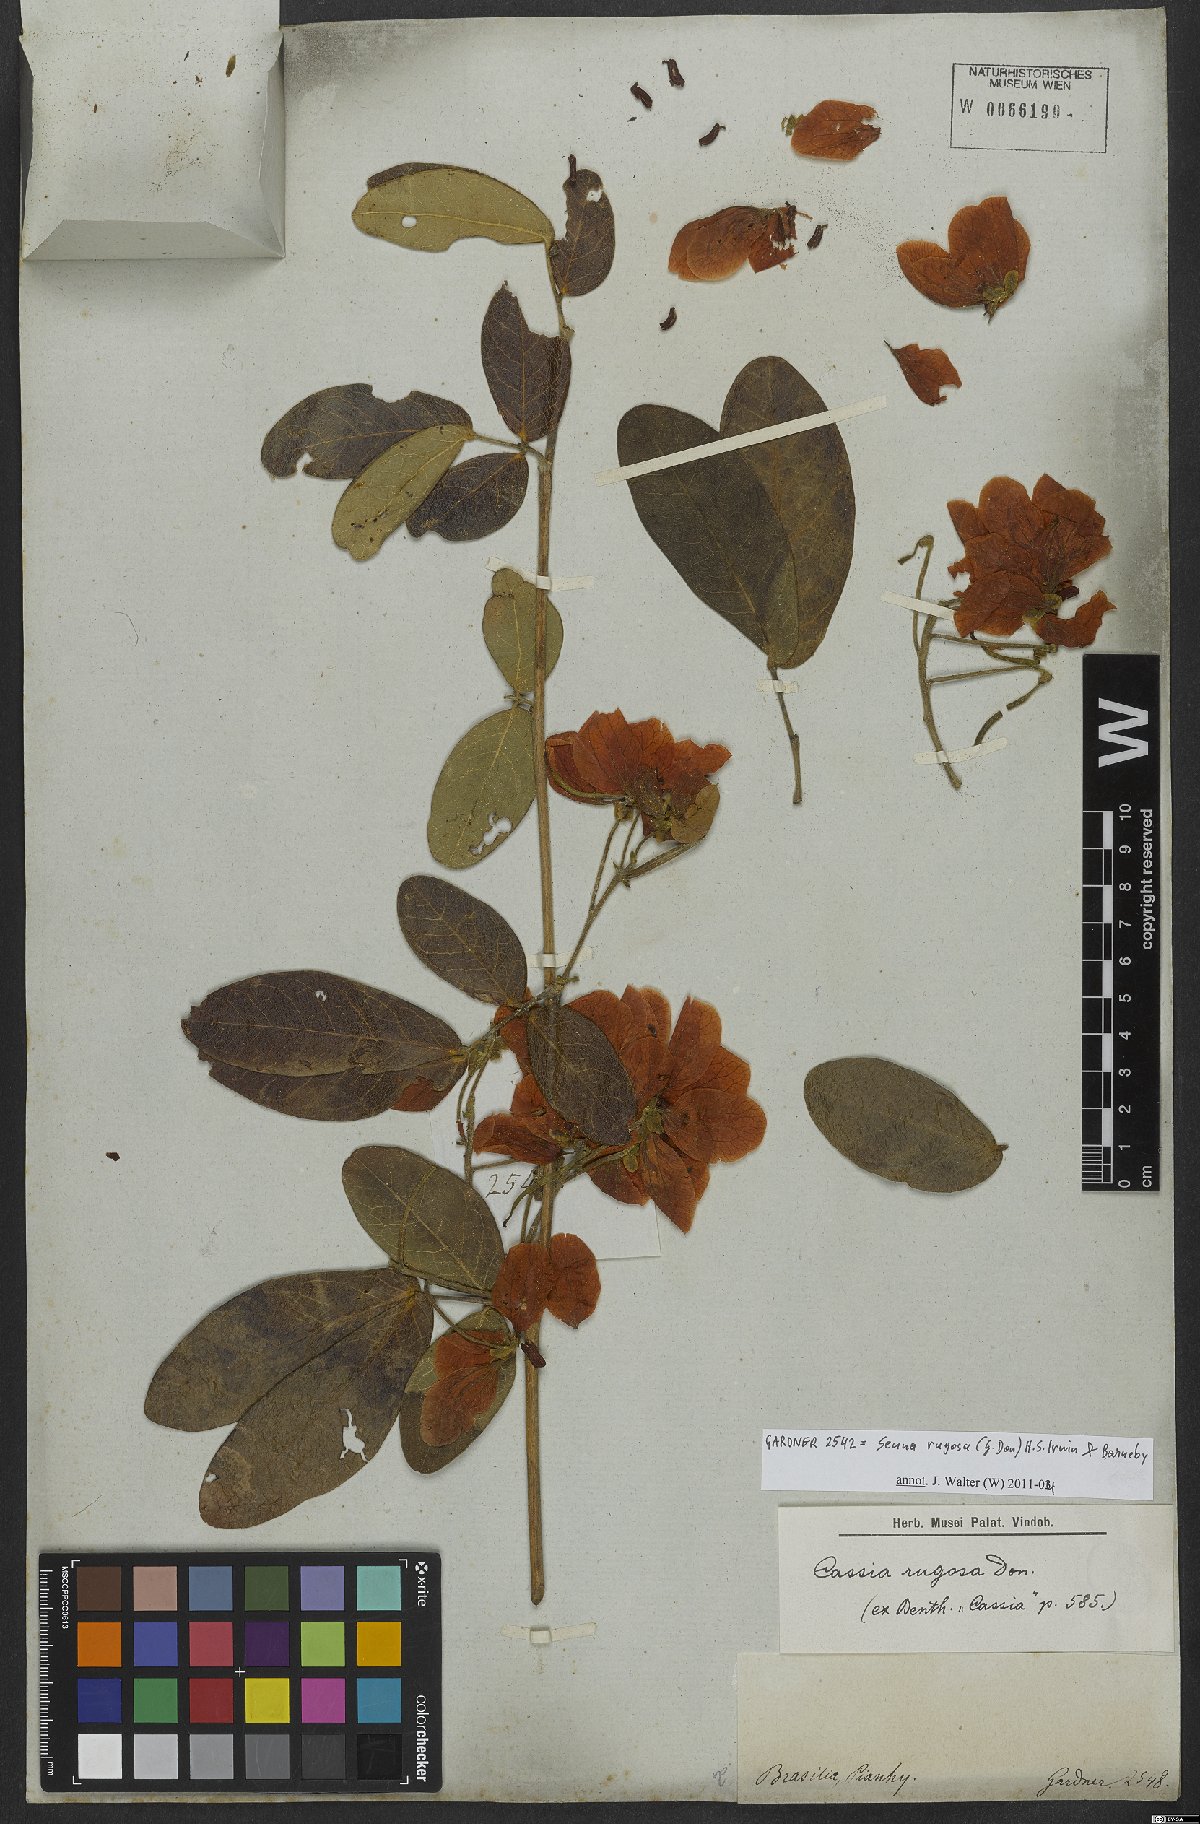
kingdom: Plantae
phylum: Tracheophyta
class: Magnoliopsida
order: Fabales
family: Fabaceae
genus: Senna
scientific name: Senna rugosa
